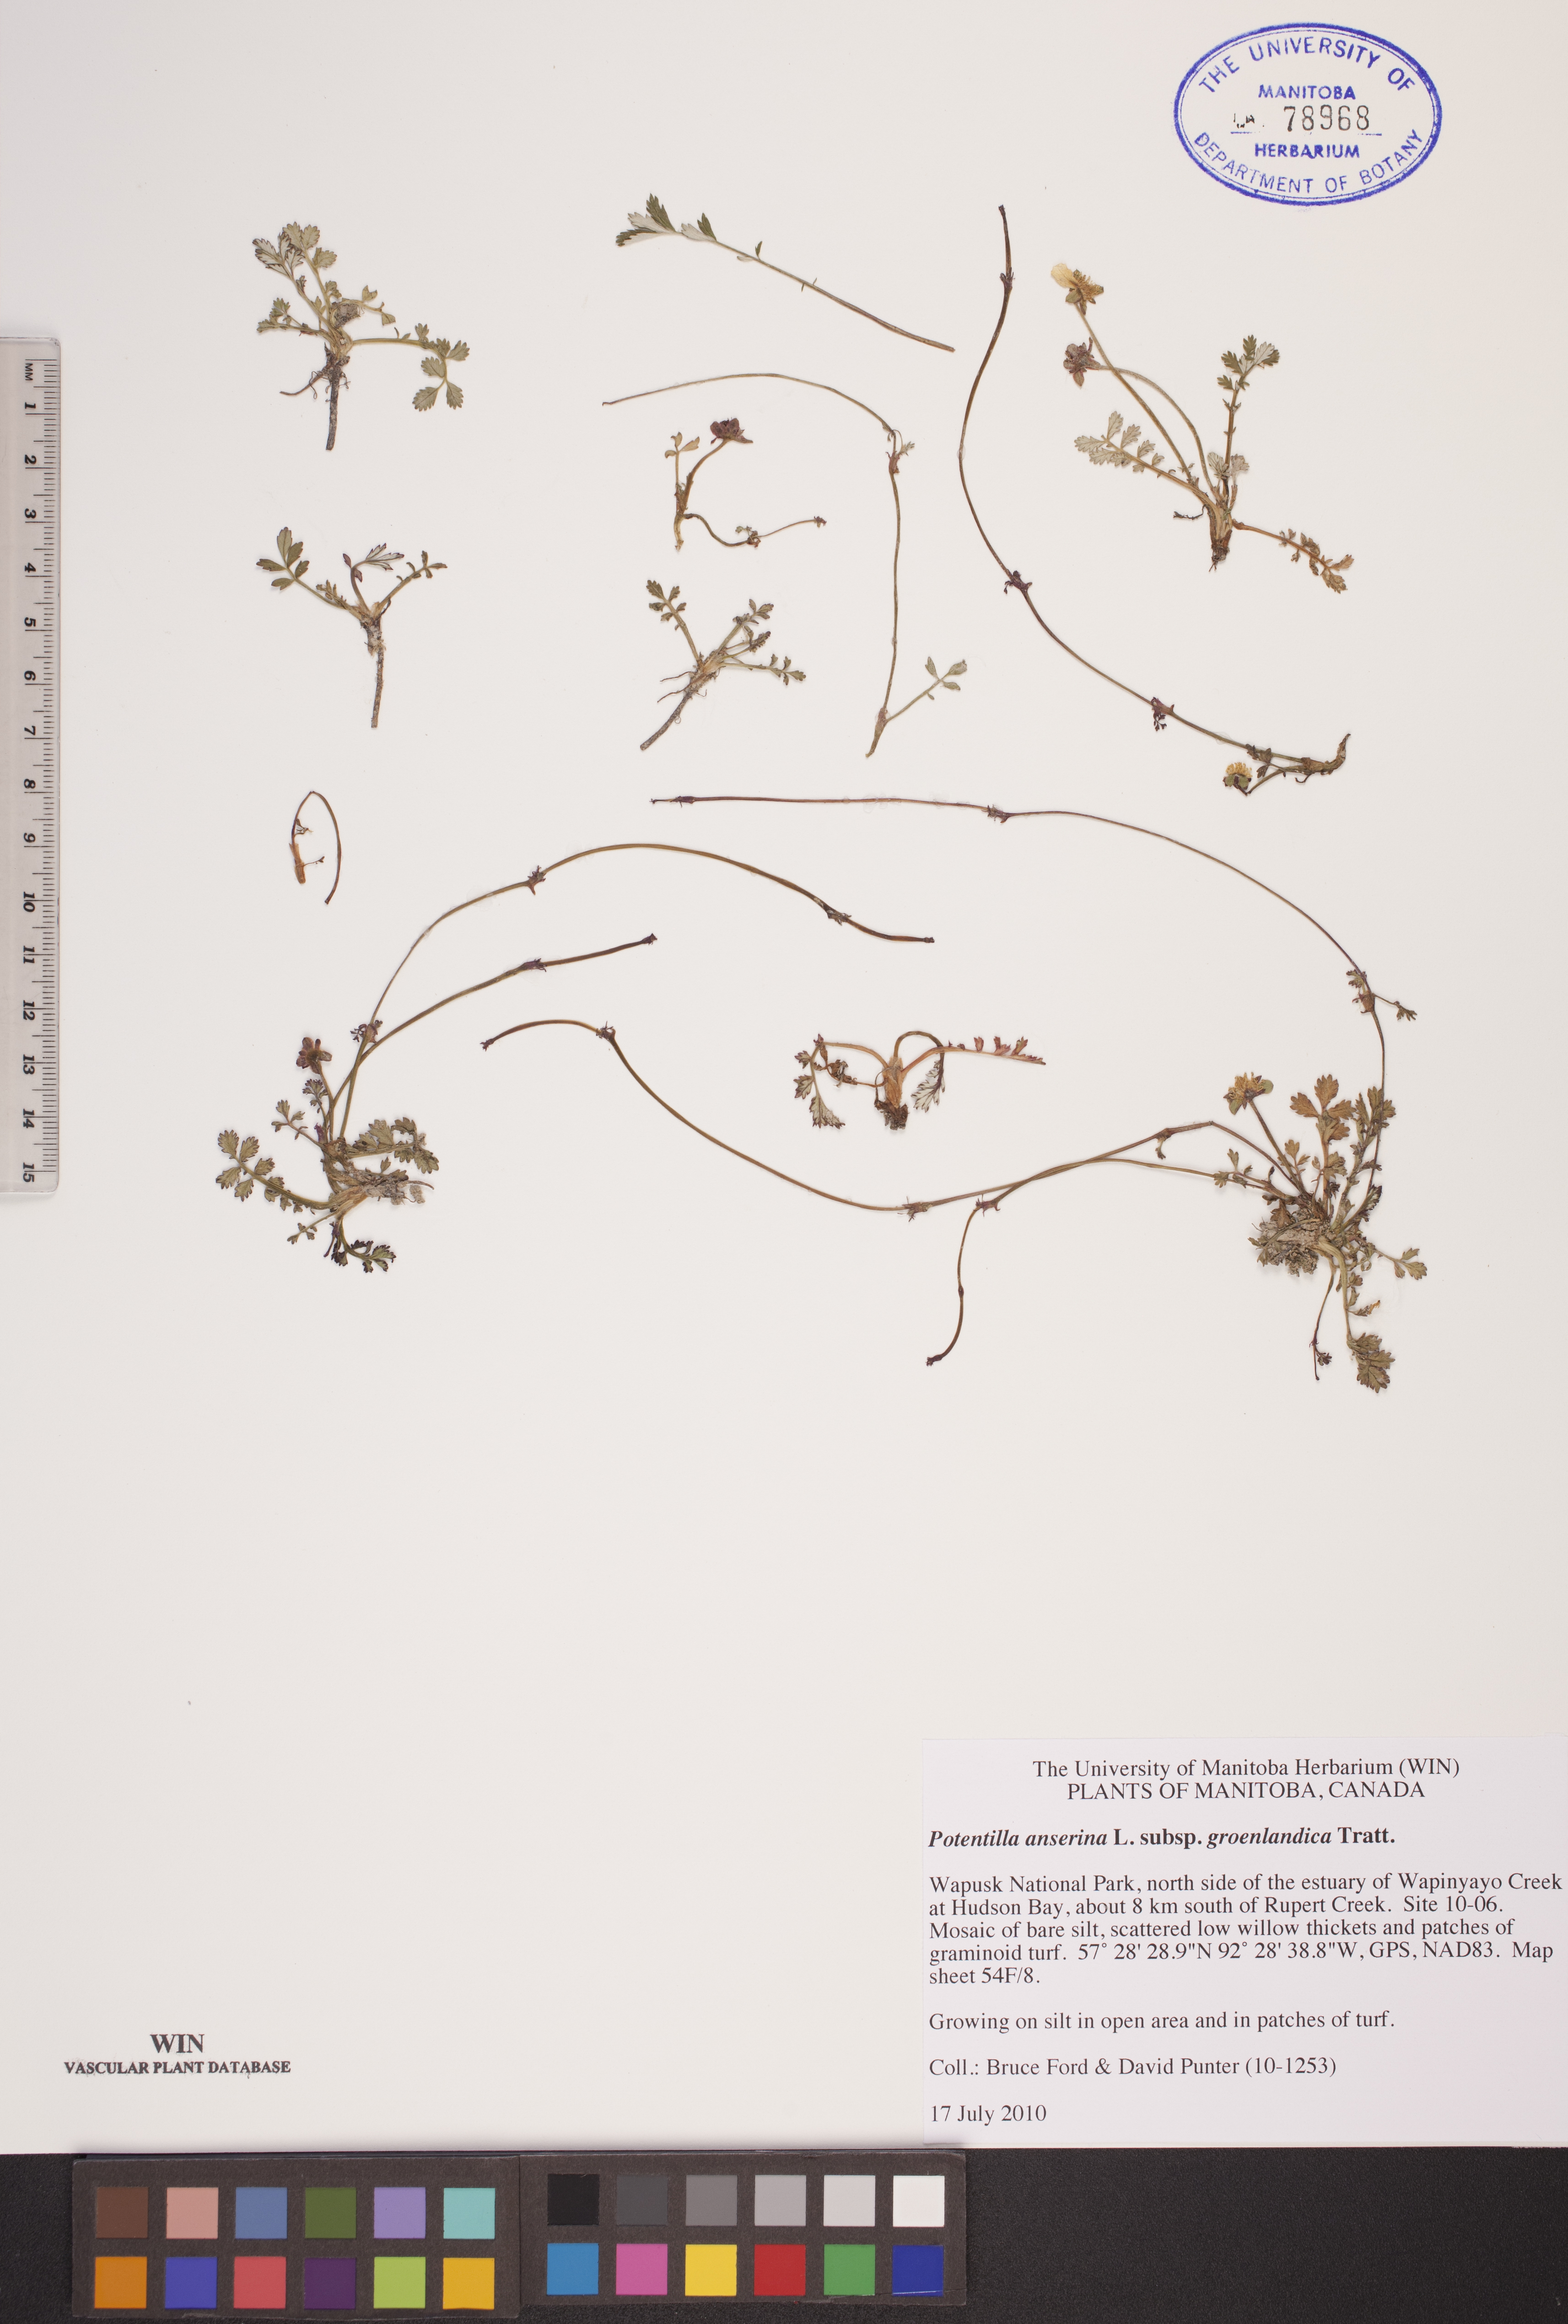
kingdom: Plantae
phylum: Tracheophyta
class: Magnoliopsida
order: Rosales
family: Rosaceae
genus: Argentina
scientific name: Argentina anserina
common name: Common silverweed
